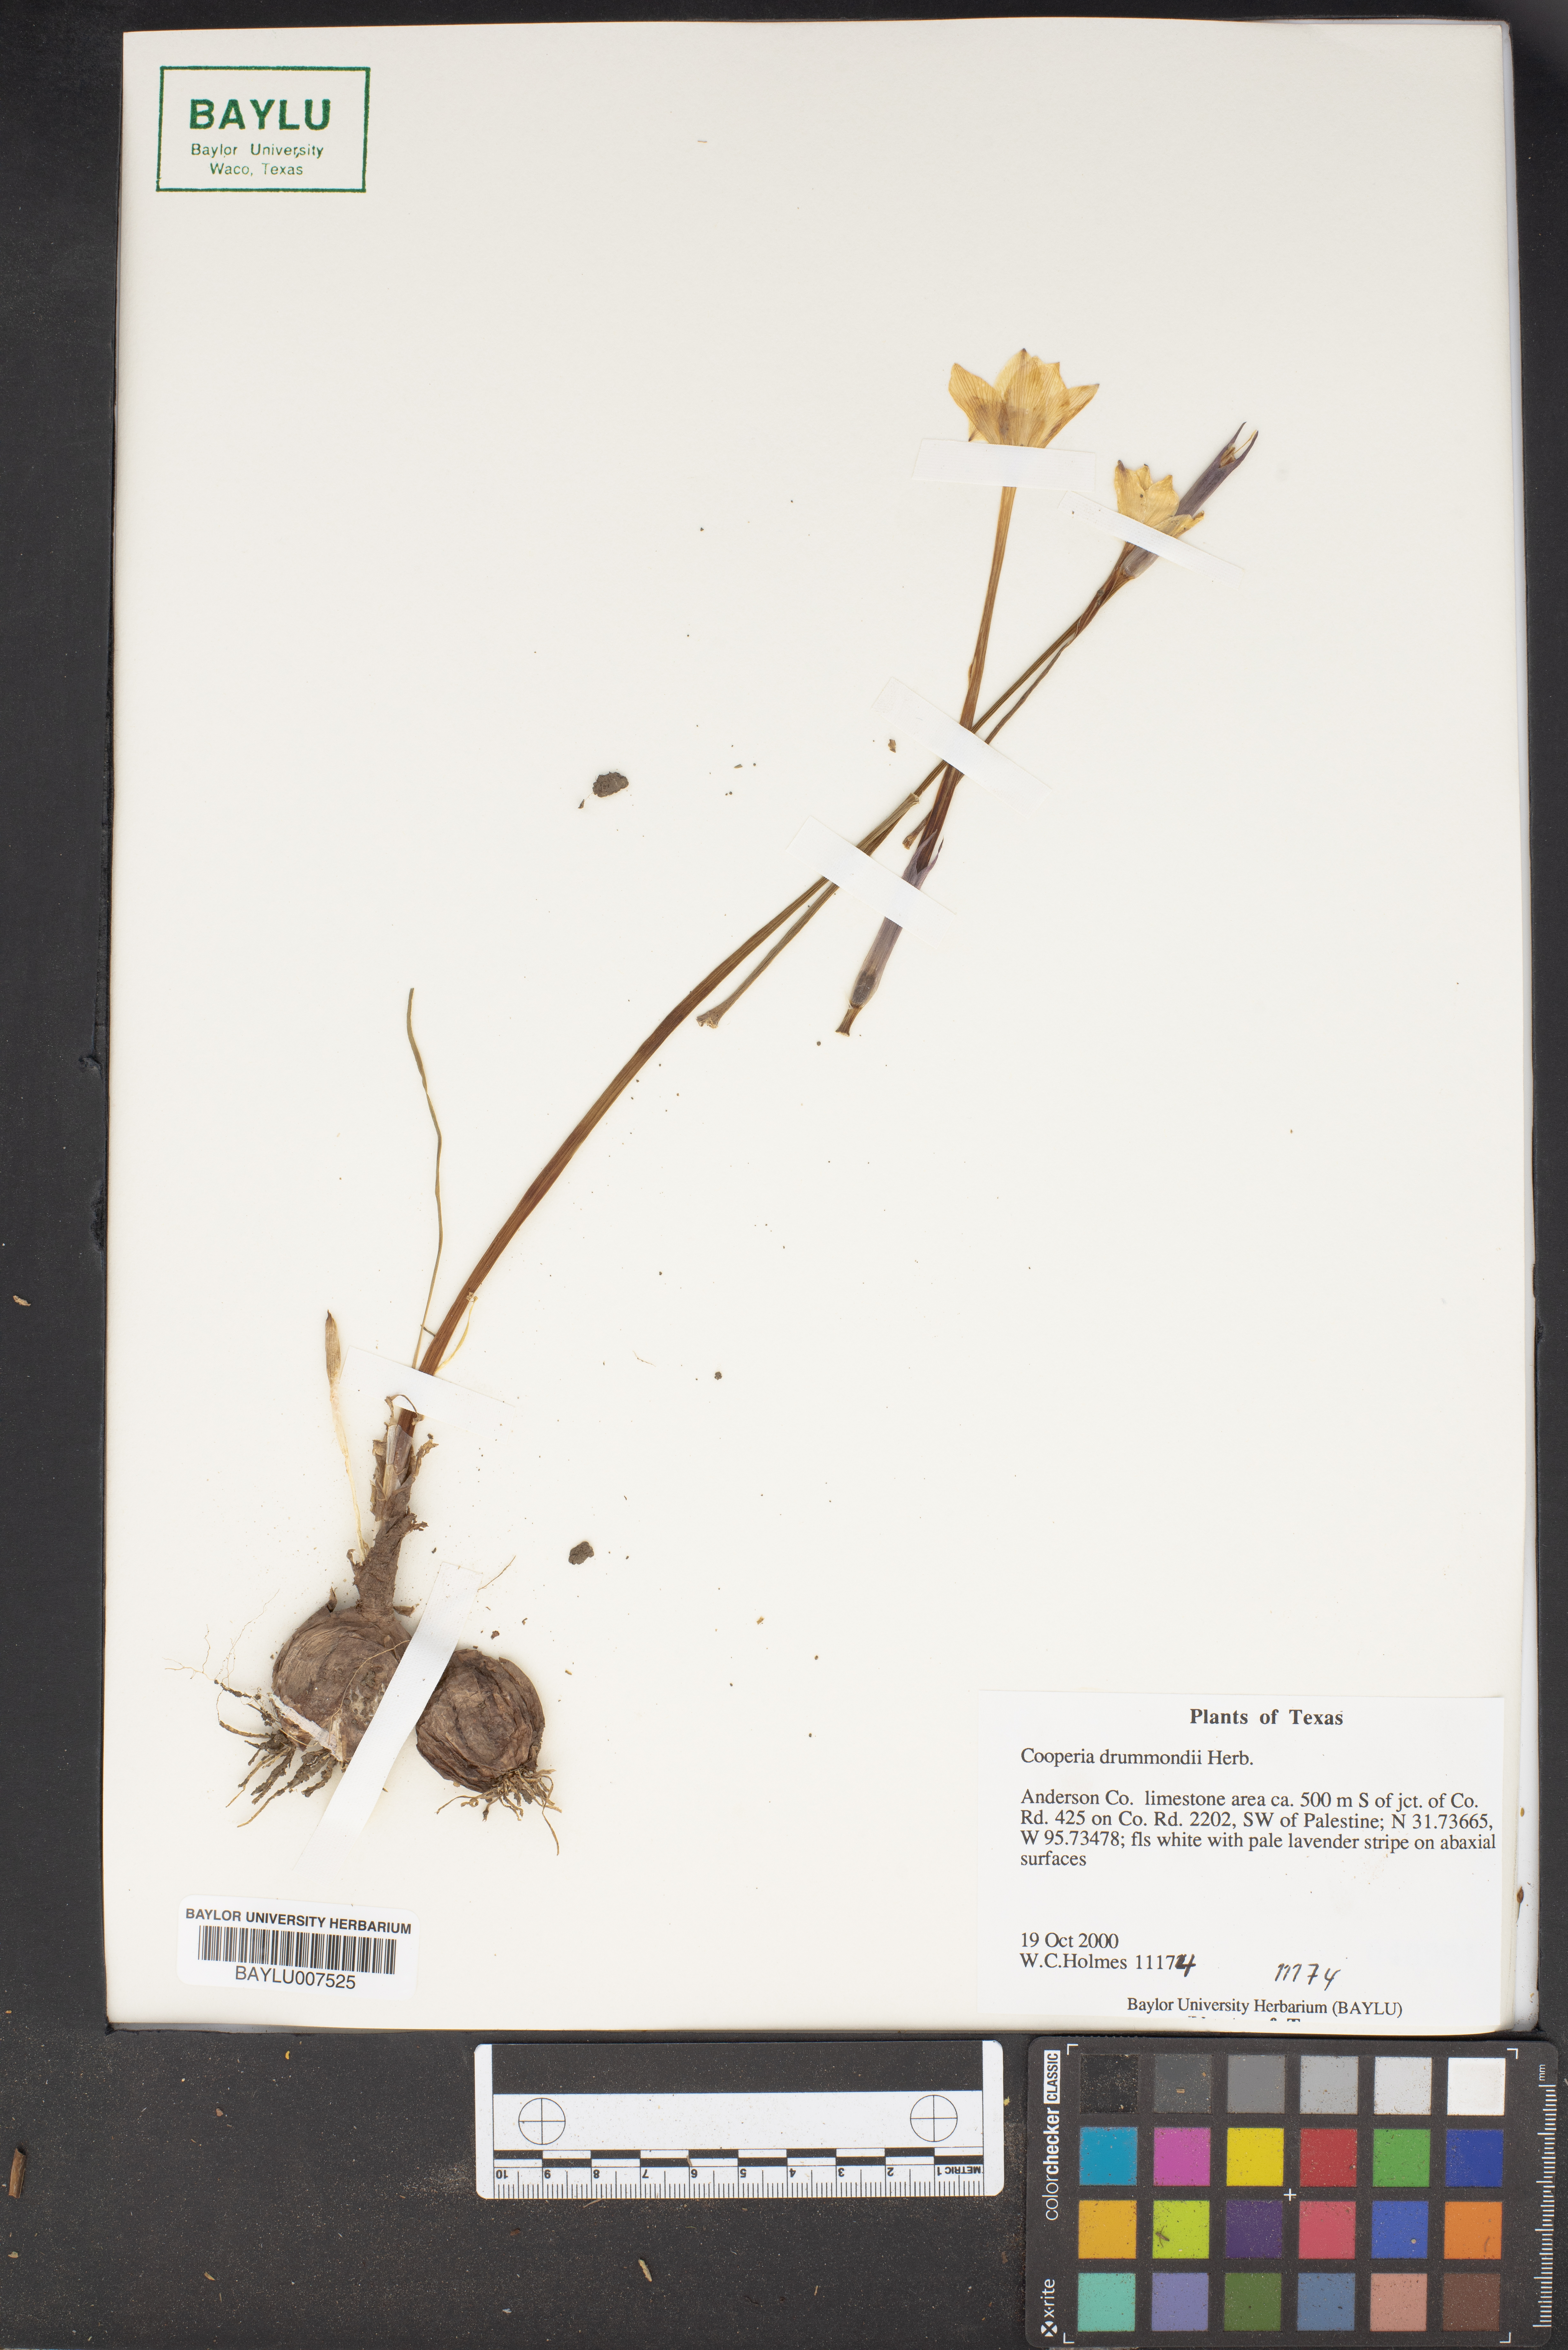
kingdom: Plantae
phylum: Tracheophyta
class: Liliopsida
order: Asparagales
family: Amaryllidaceae
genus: Zephyranthes
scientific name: Zephyranthes chlorosolen
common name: Evening rain-lily
